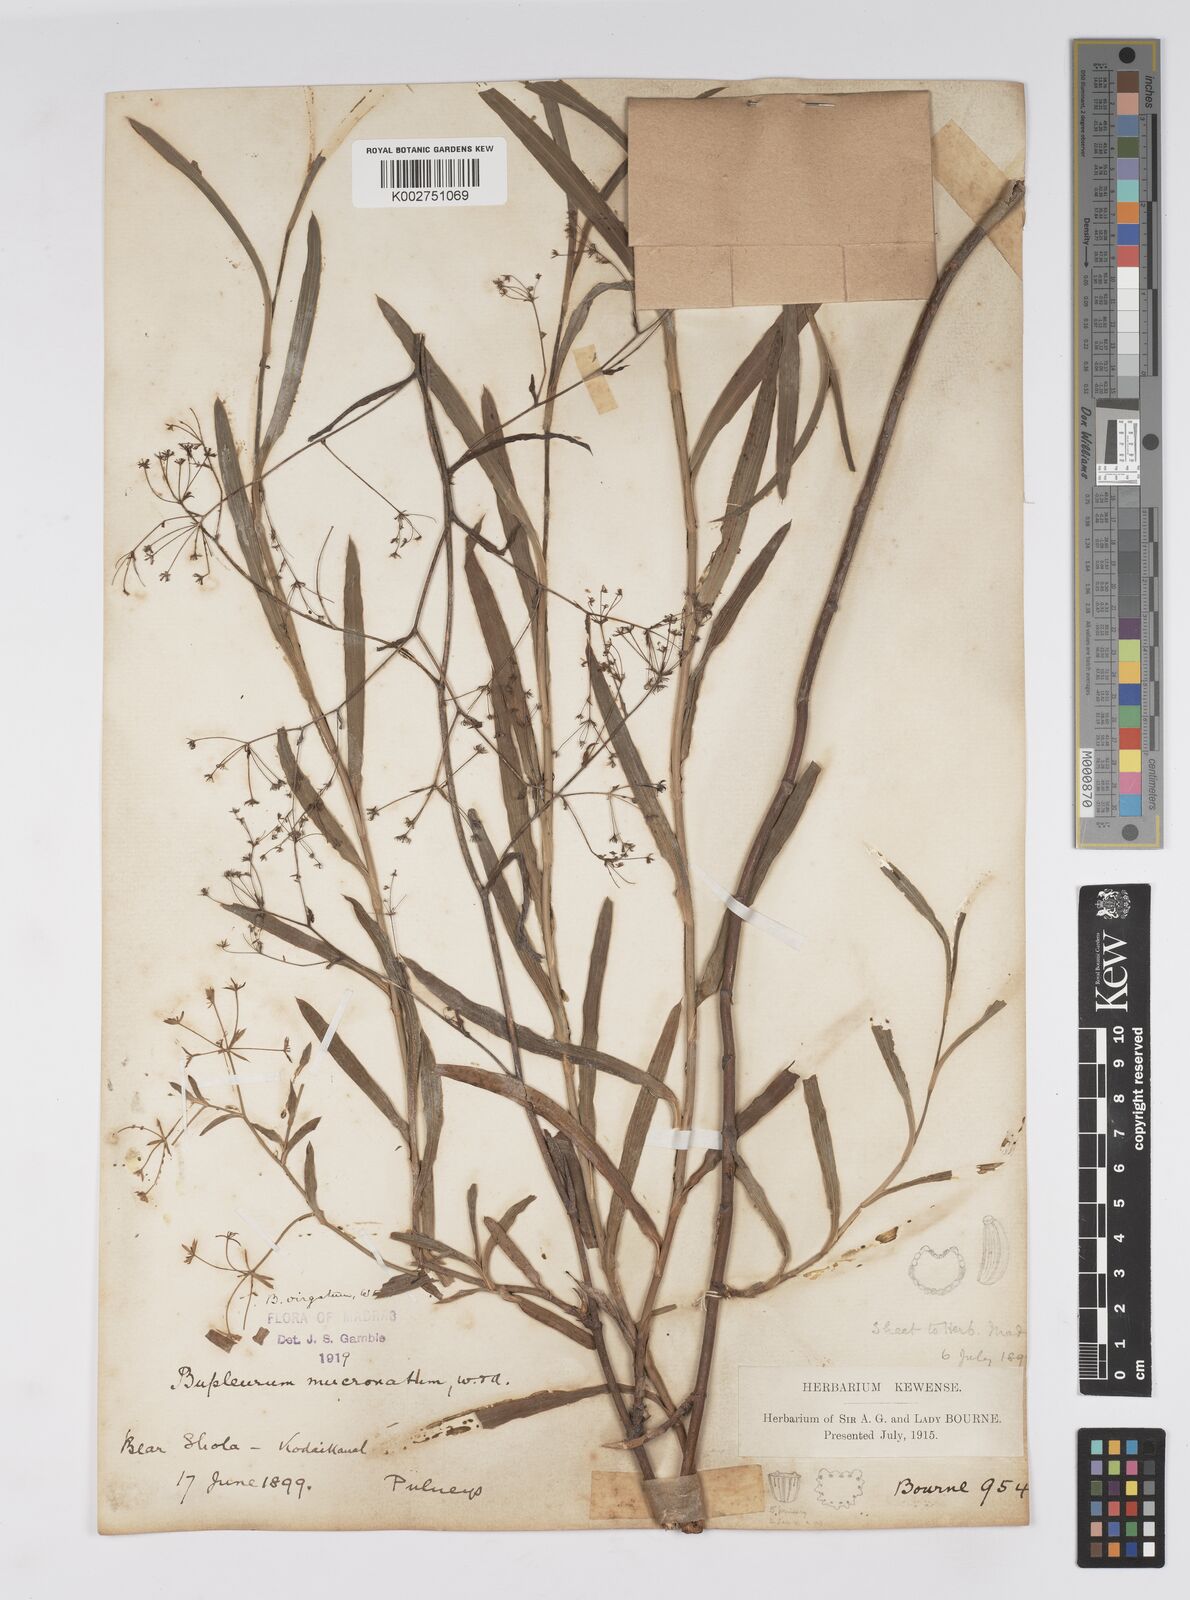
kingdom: Plantae
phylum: Tracheophyta
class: Magnoliopsida
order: Apiales
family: Apiaceae
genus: Bupleurum
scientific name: Bupleurum
